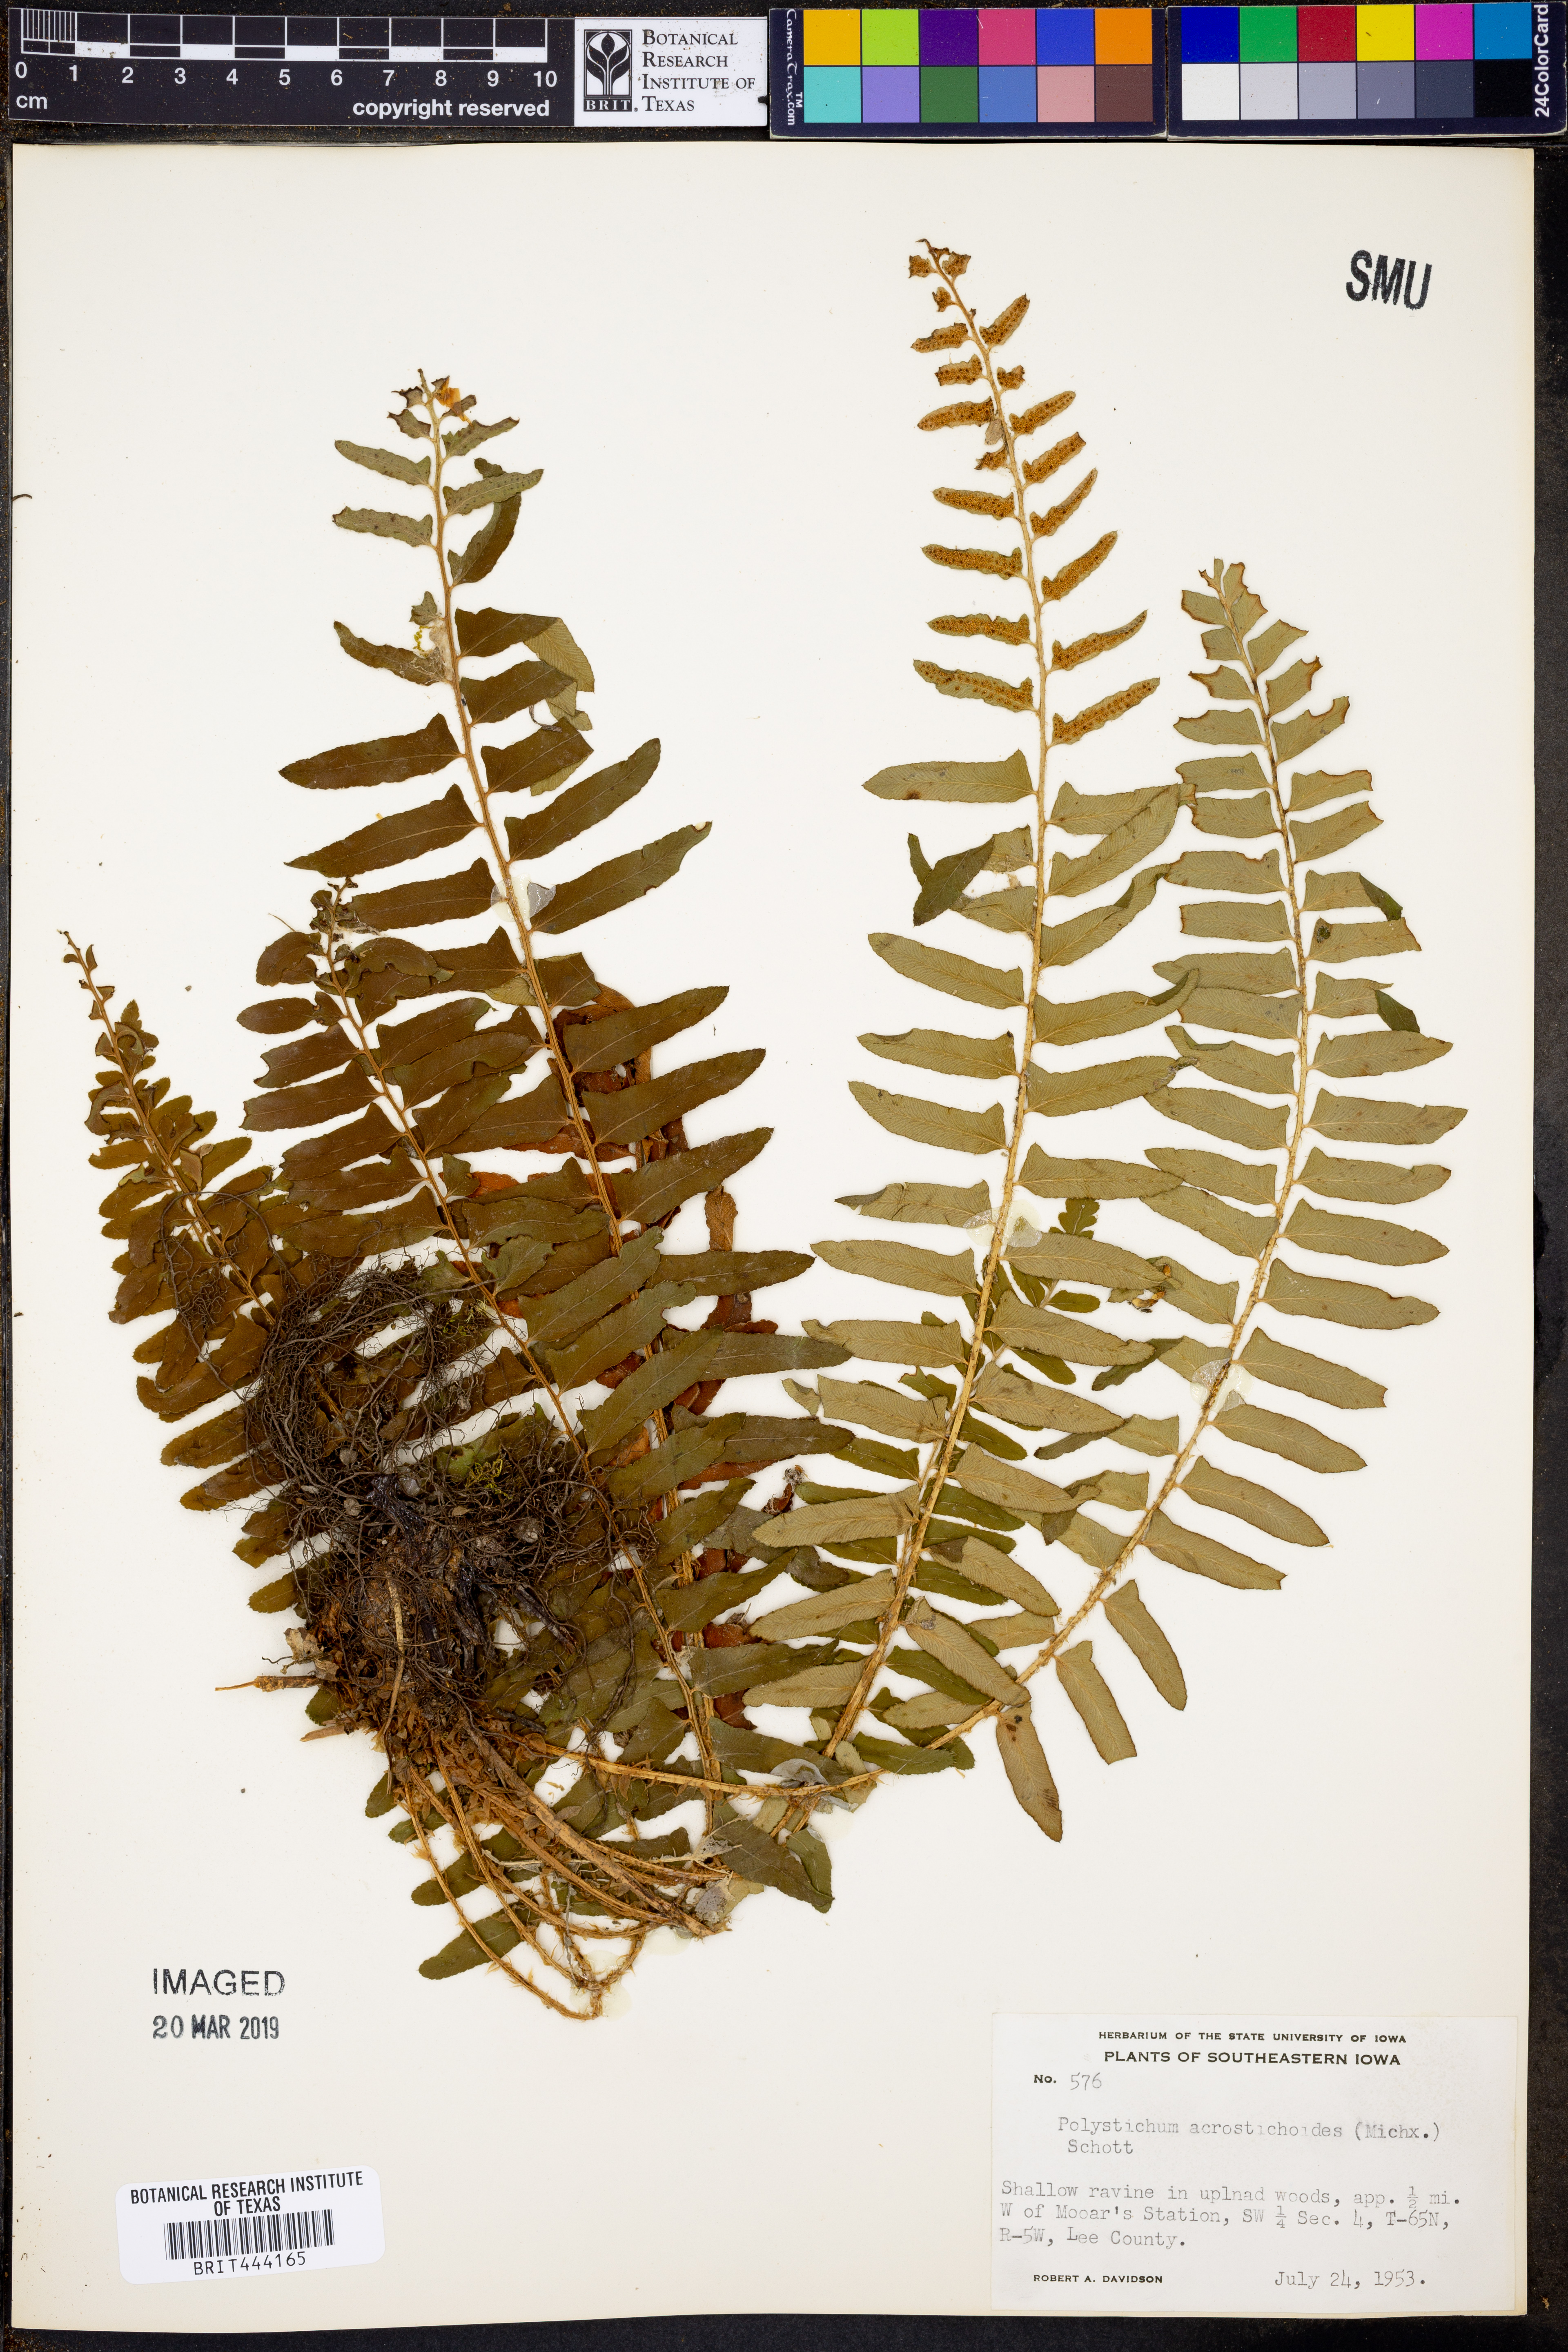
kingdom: Plantae
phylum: Tracheophyta
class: Polypodiopsida
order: Polypodiales
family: Dryopteridaceae
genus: Polystichum
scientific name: Polystichum acrostichoides
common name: Christmas fern
